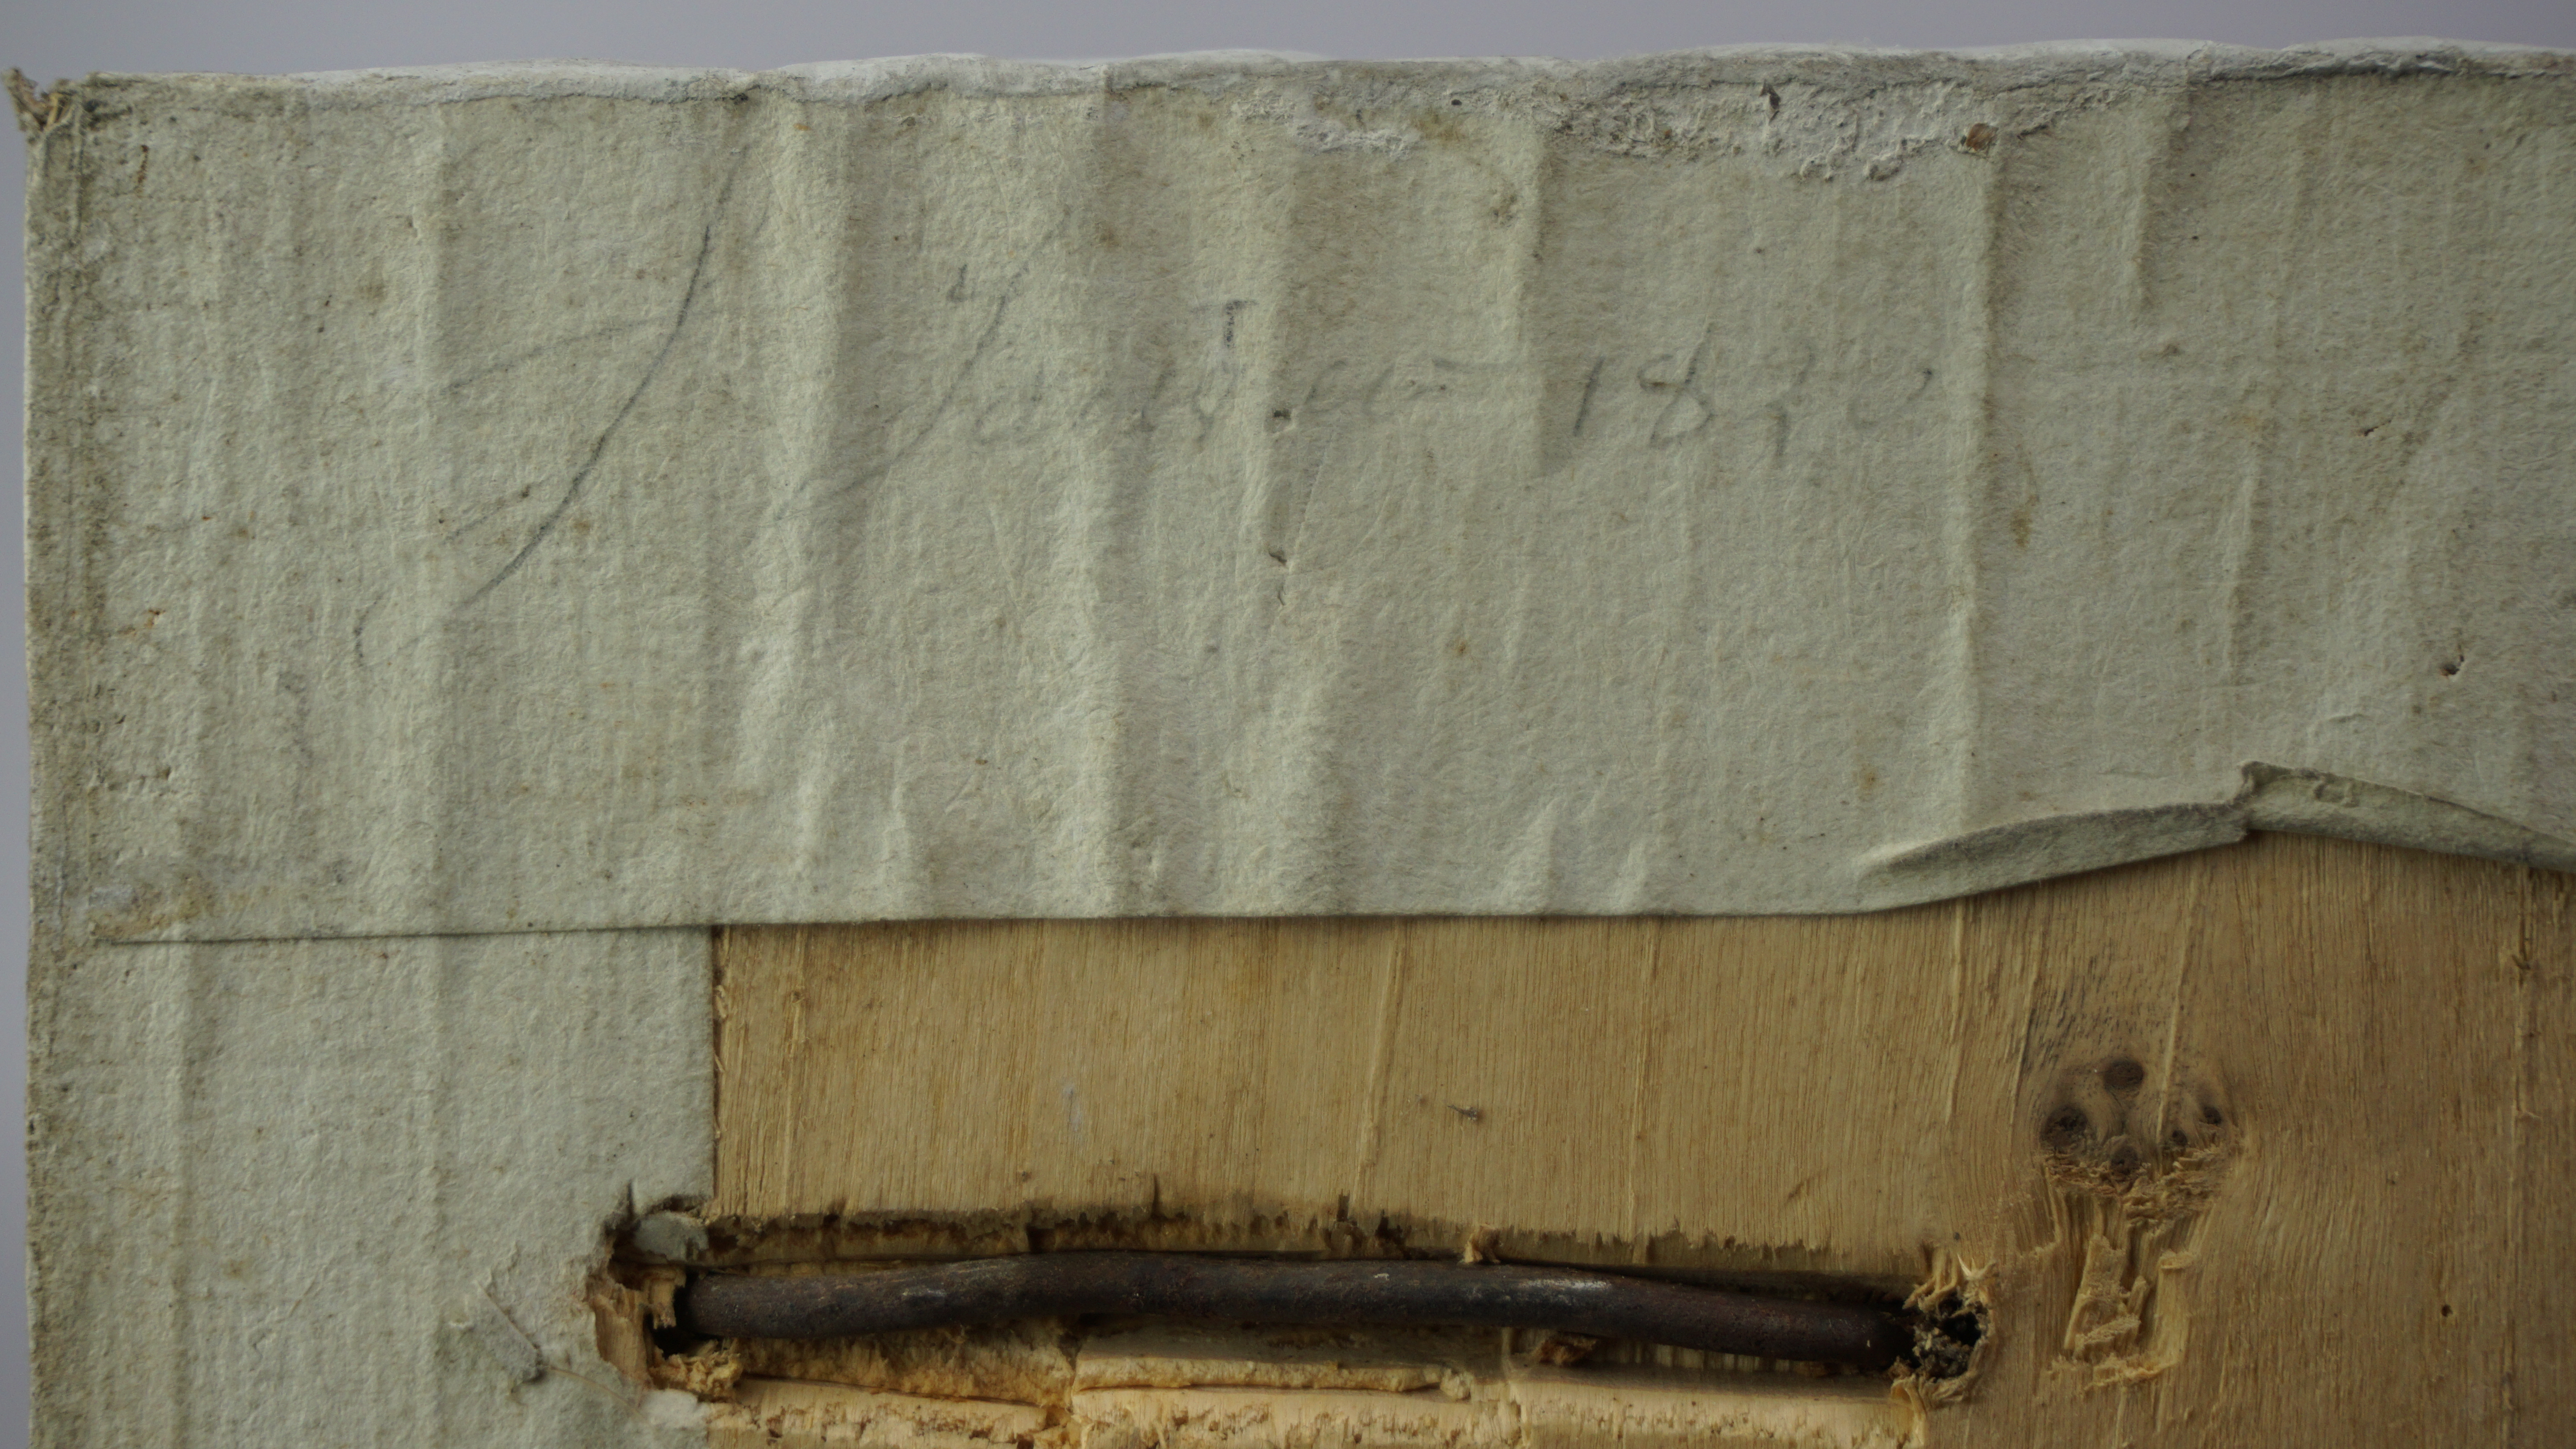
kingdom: Animalia
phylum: Chordata
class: Aves
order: Anseriformes
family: Anatidae
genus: Anser
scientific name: Anser albifrons
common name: Greater white-fronted goose
